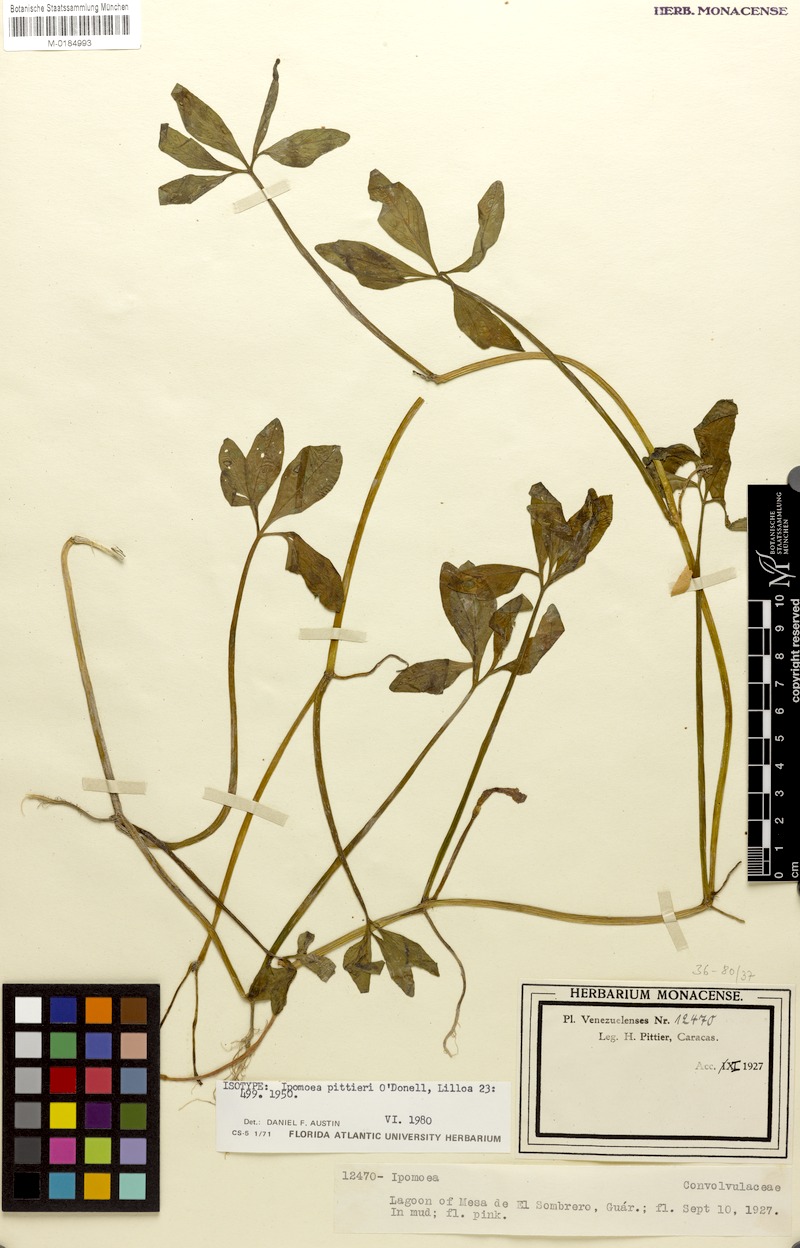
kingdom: Plantae
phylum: Tracheophyta
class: Magnoliopsida
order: Solanales
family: Convolvulaceae
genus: Ipomoea
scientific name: Ipomoea pittieri
